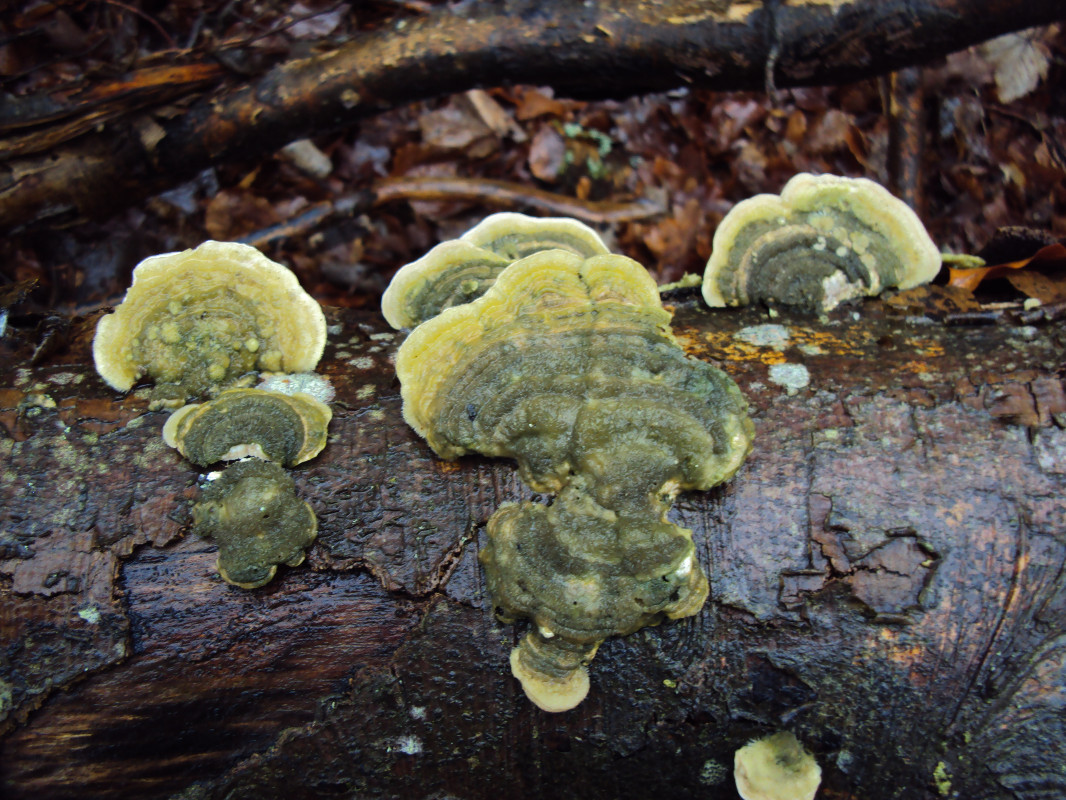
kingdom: Fungi
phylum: Basidiomycota
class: Agaricomycetes
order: Polyporales
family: Polyporaceae
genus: Trametes
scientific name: Trametes hirsuta
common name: håret læderporesvamp
